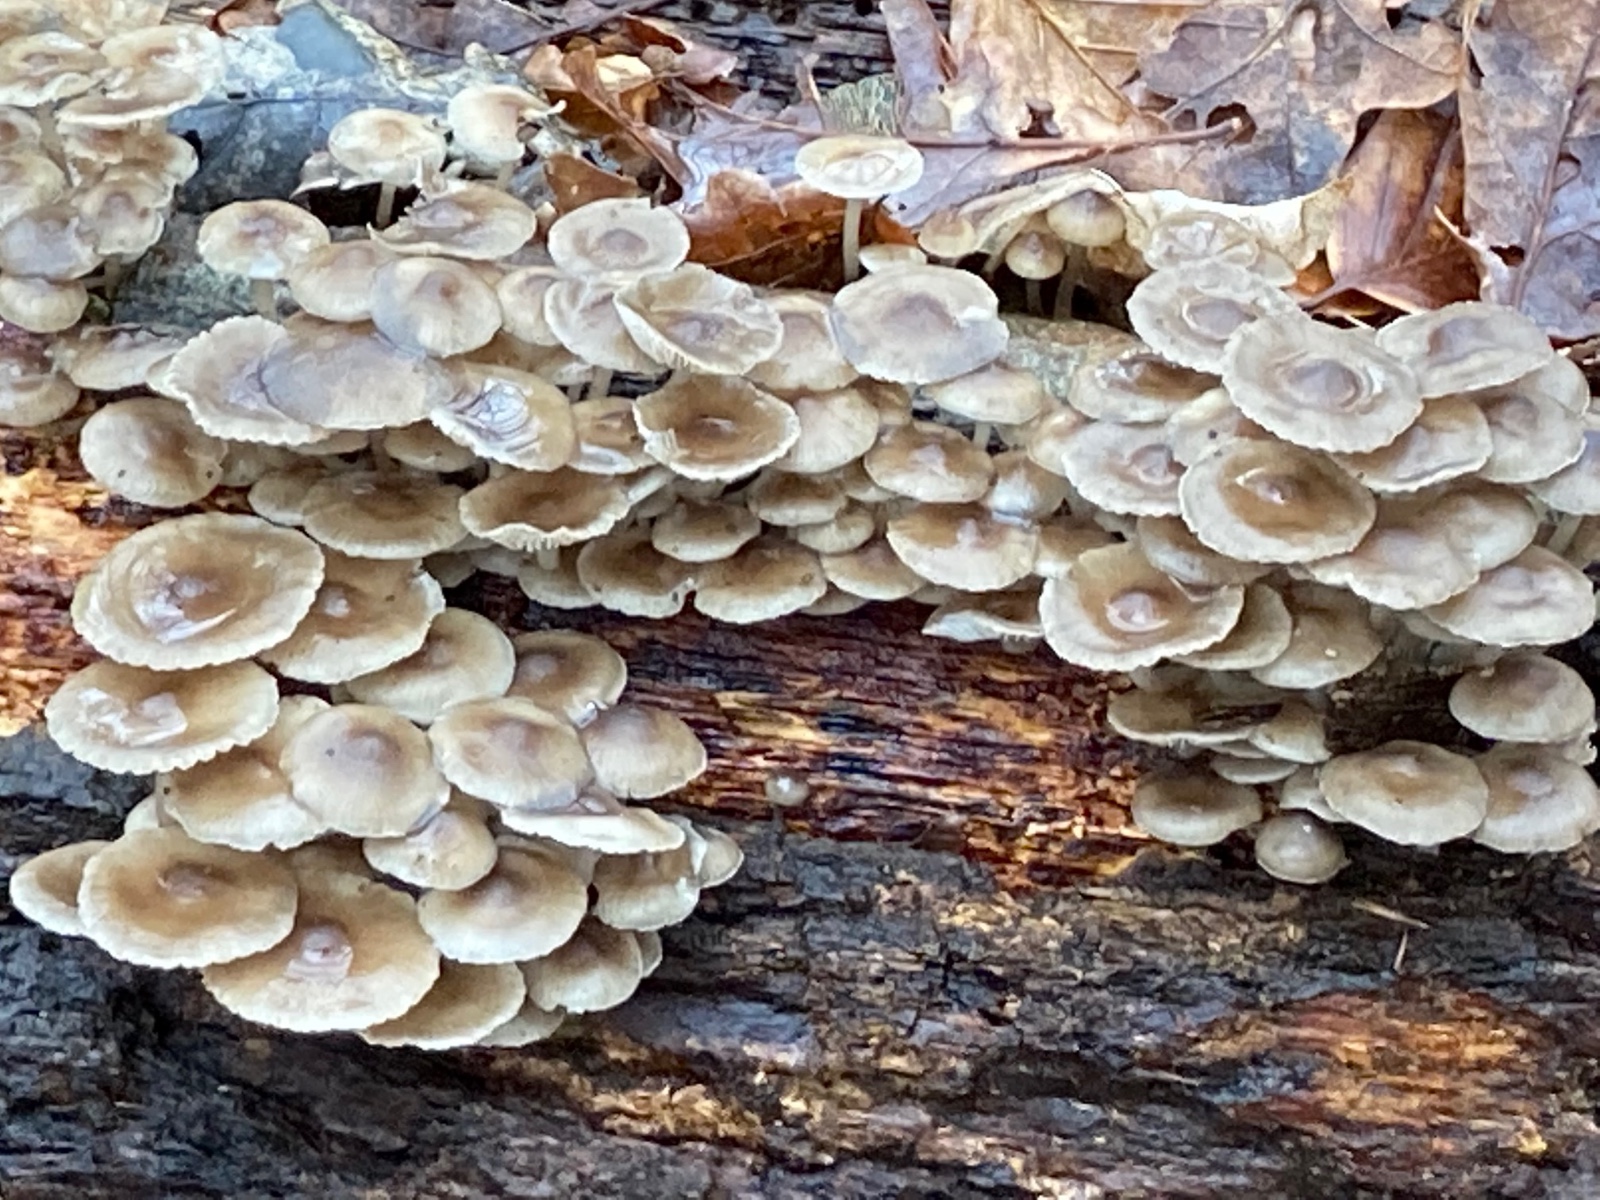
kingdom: Fungi
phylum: Basidiomycota
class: Agaricomycetes
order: Agaricales
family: Mycenaceae
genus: Mycena
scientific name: Mycena tintinnabulum
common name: vinter-huesvamp
